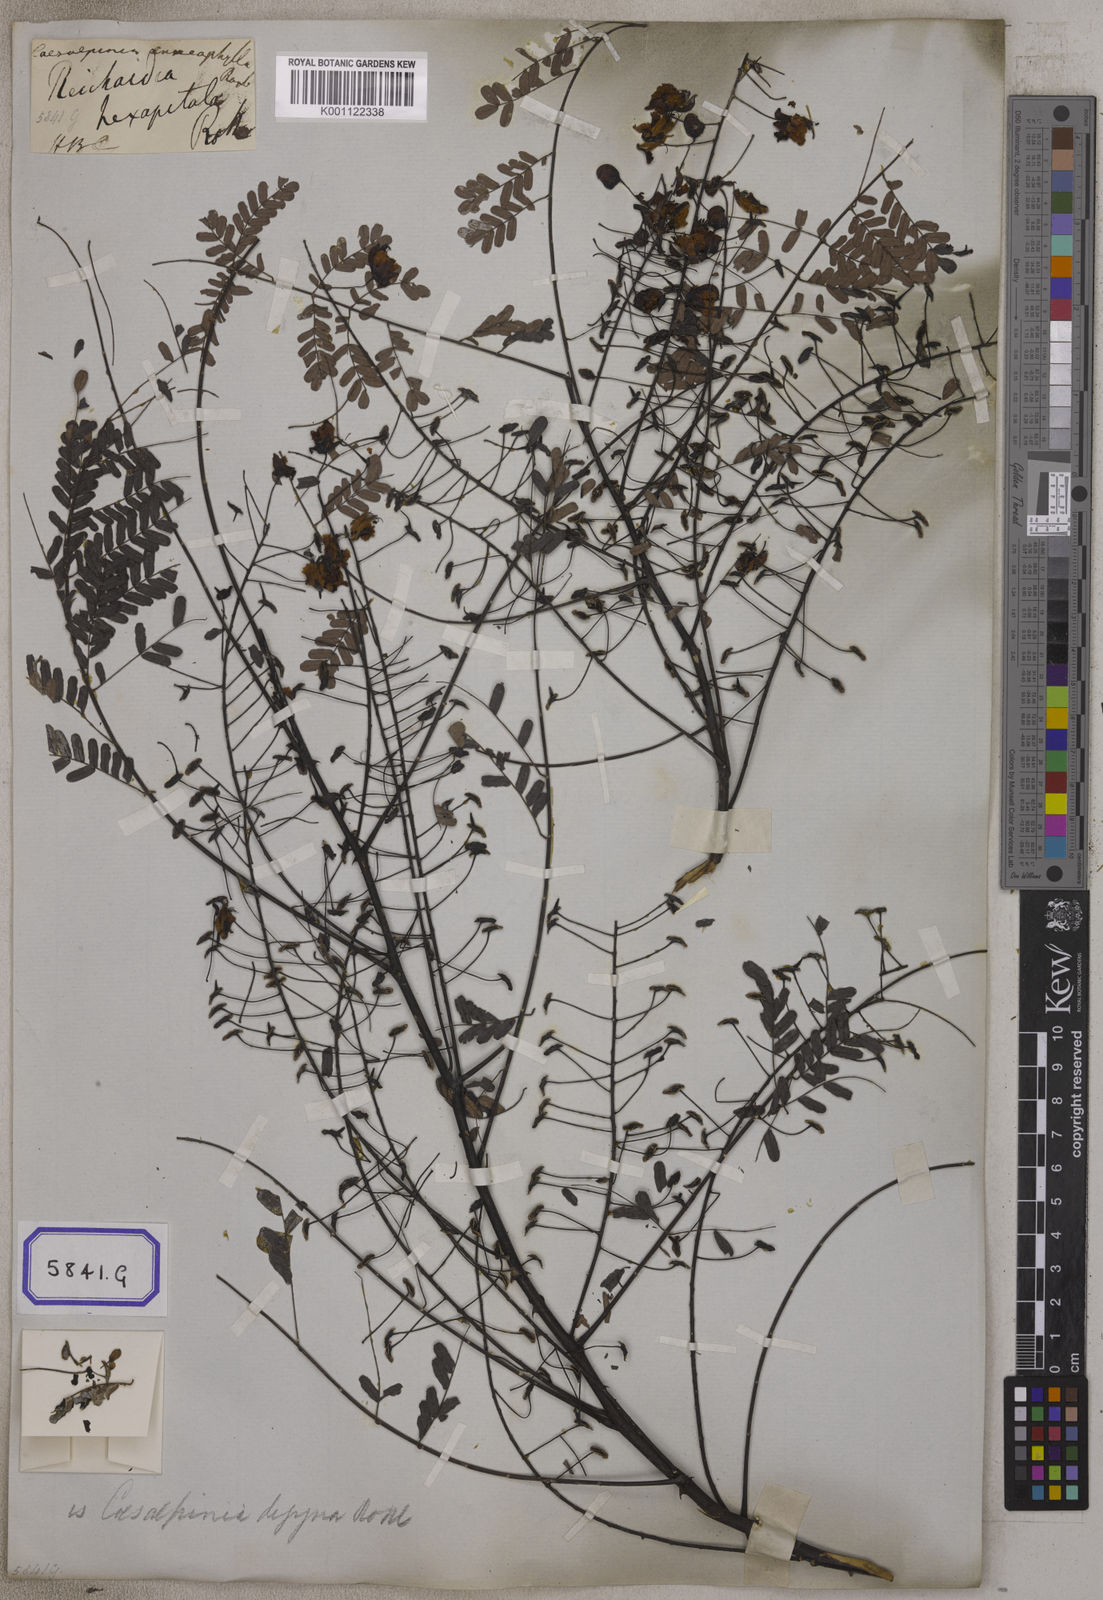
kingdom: Plantae
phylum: Tracheophyta
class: Magnoliopsida
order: Fabales
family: Fabaceae
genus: Pterolobium
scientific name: Pterolobium hexapetalum
